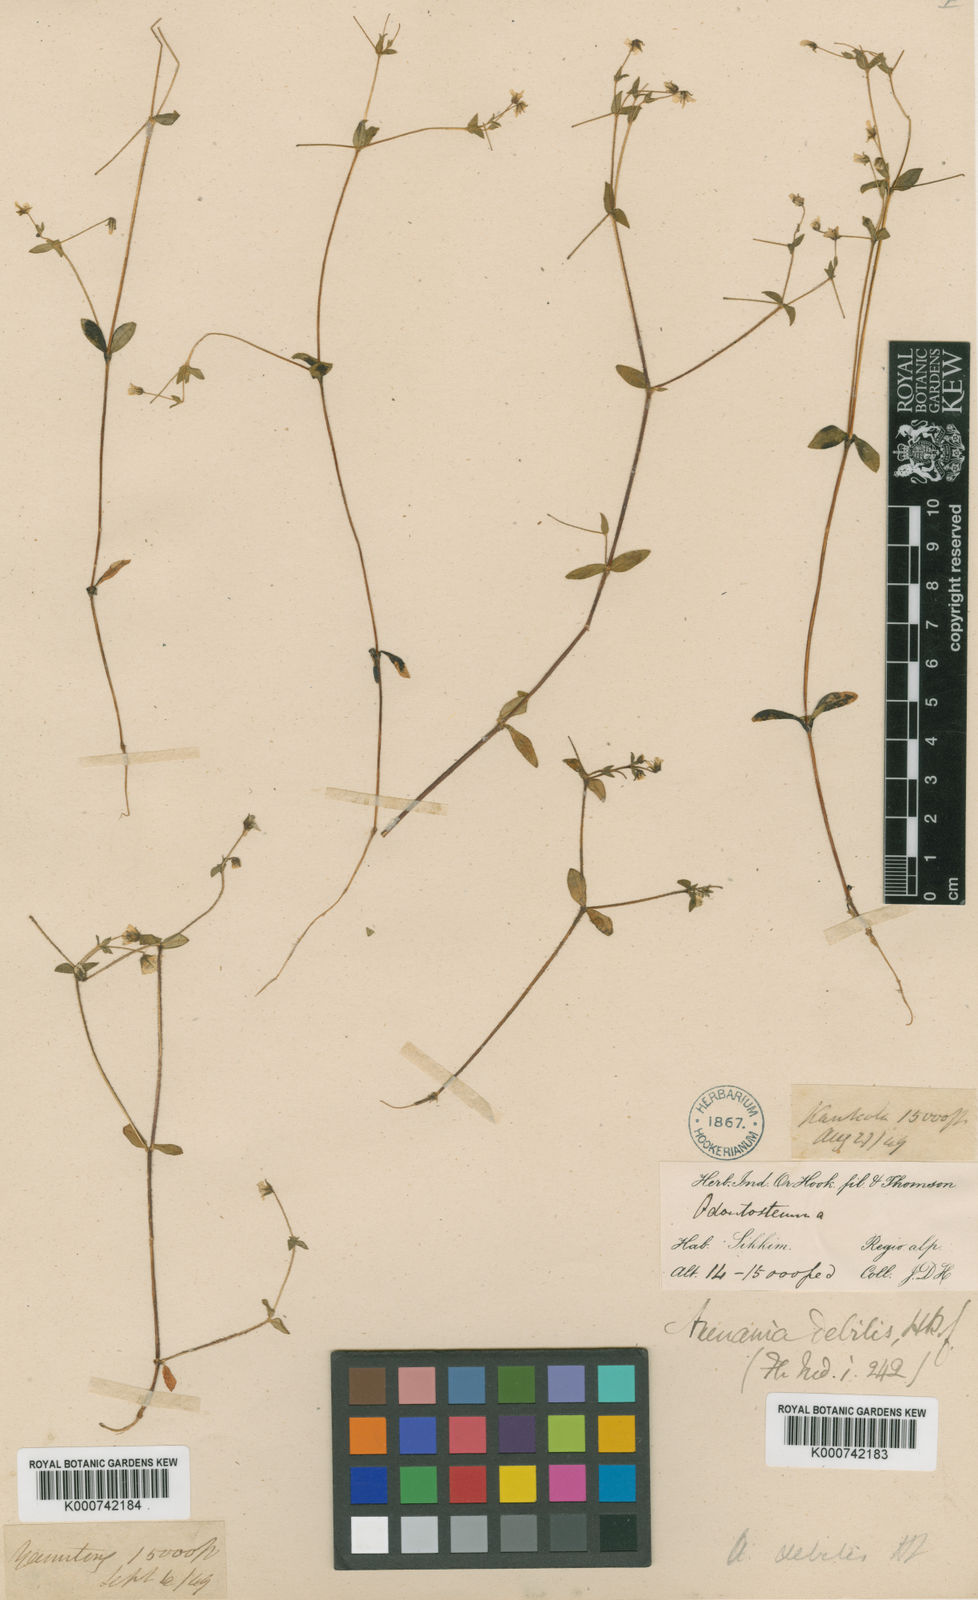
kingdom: Plantae
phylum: Tracheophyta
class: Magnoliopsida
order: Caryophyllales
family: Caryophyllaceae
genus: Odontostemma
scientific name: Odontostemma glandulosum
